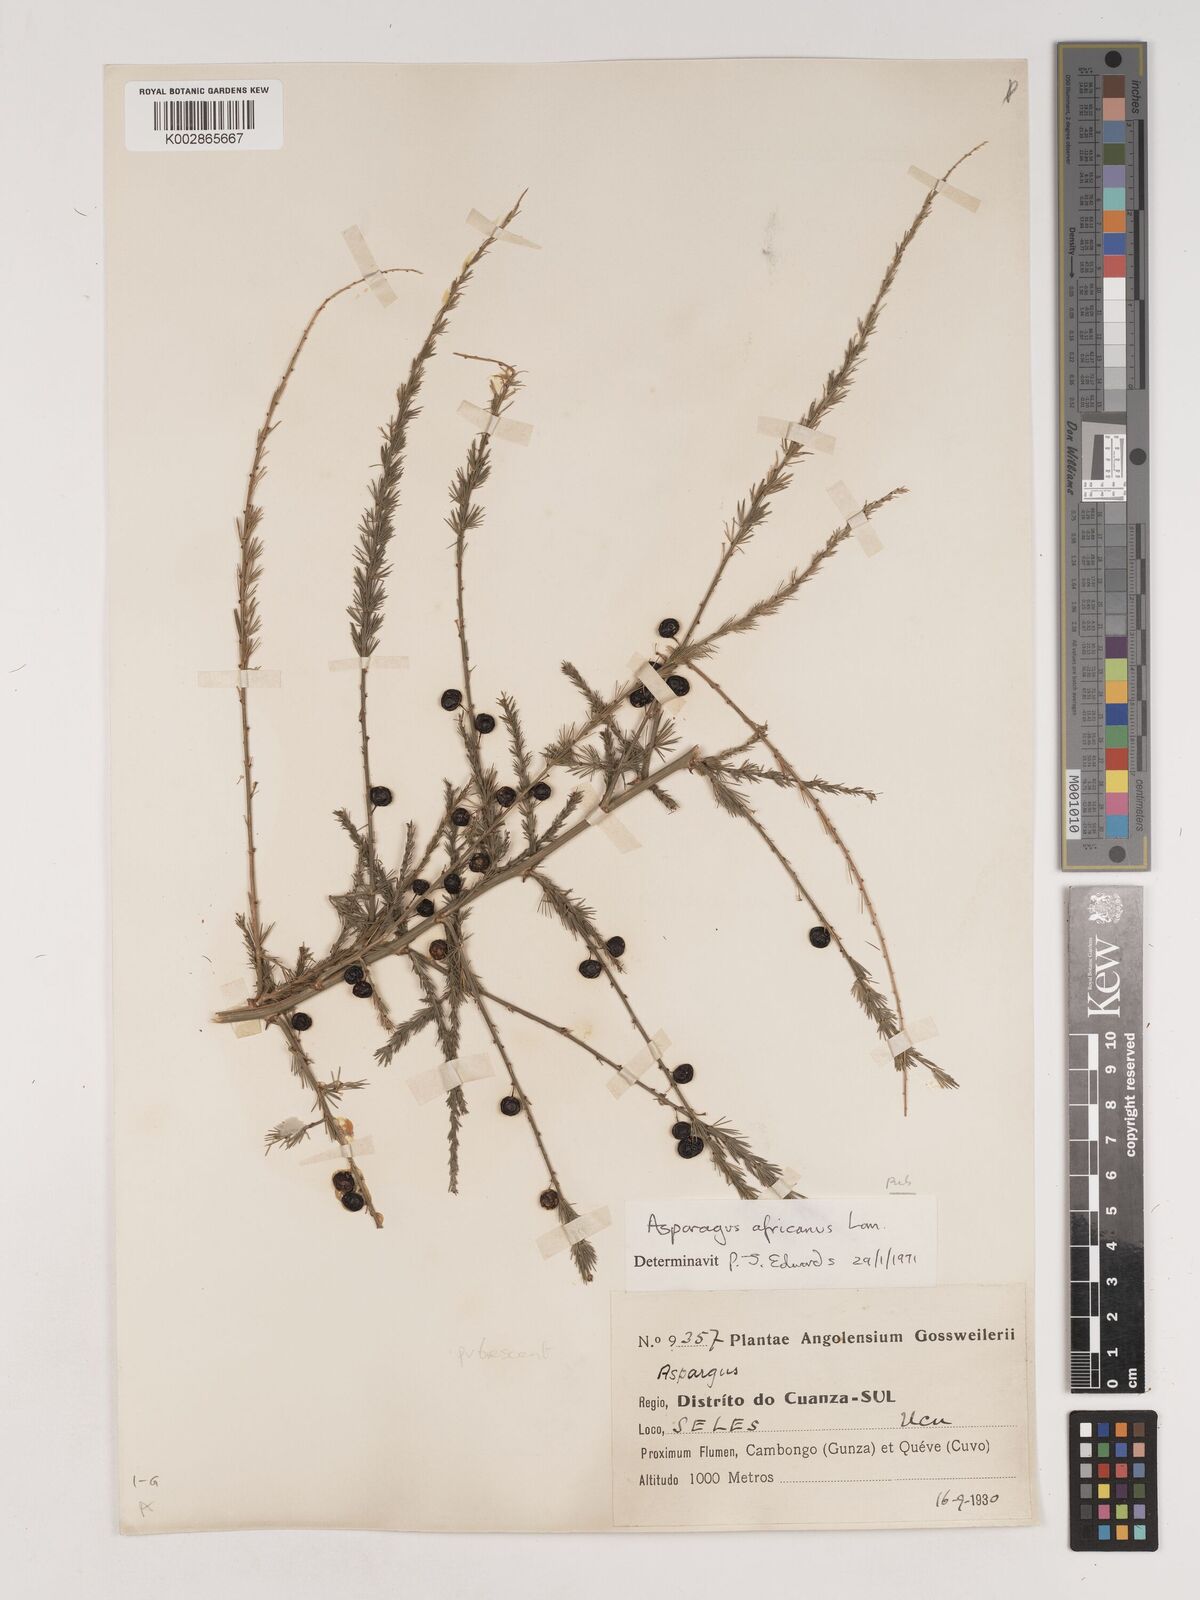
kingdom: Plantae
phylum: Tracheophyta
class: Liliopsida
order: Asparagales
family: Asparagaceae
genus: Asparagus
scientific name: Asparagus africanus
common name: Asparagus-fern
